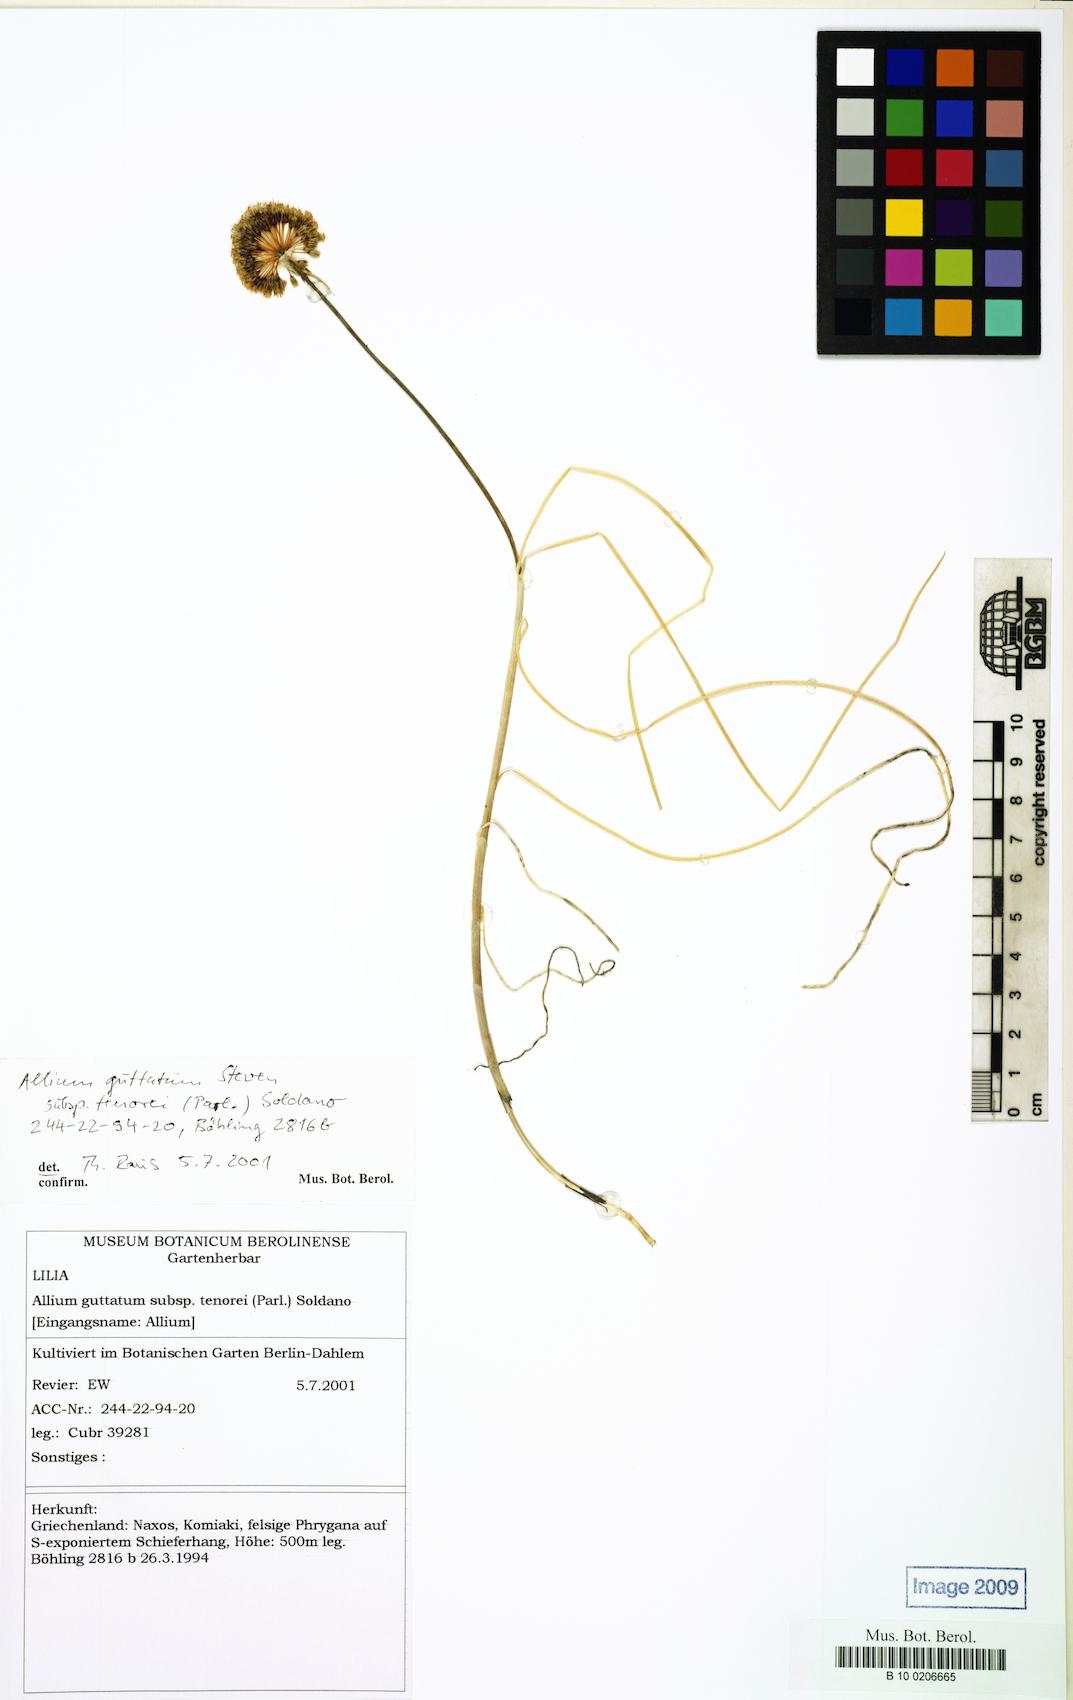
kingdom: Plantae
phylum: Tracheophyta
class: Liliopsida
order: Asparagales
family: Amaryllidaceae
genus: Allium
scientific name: Allium sardoum
